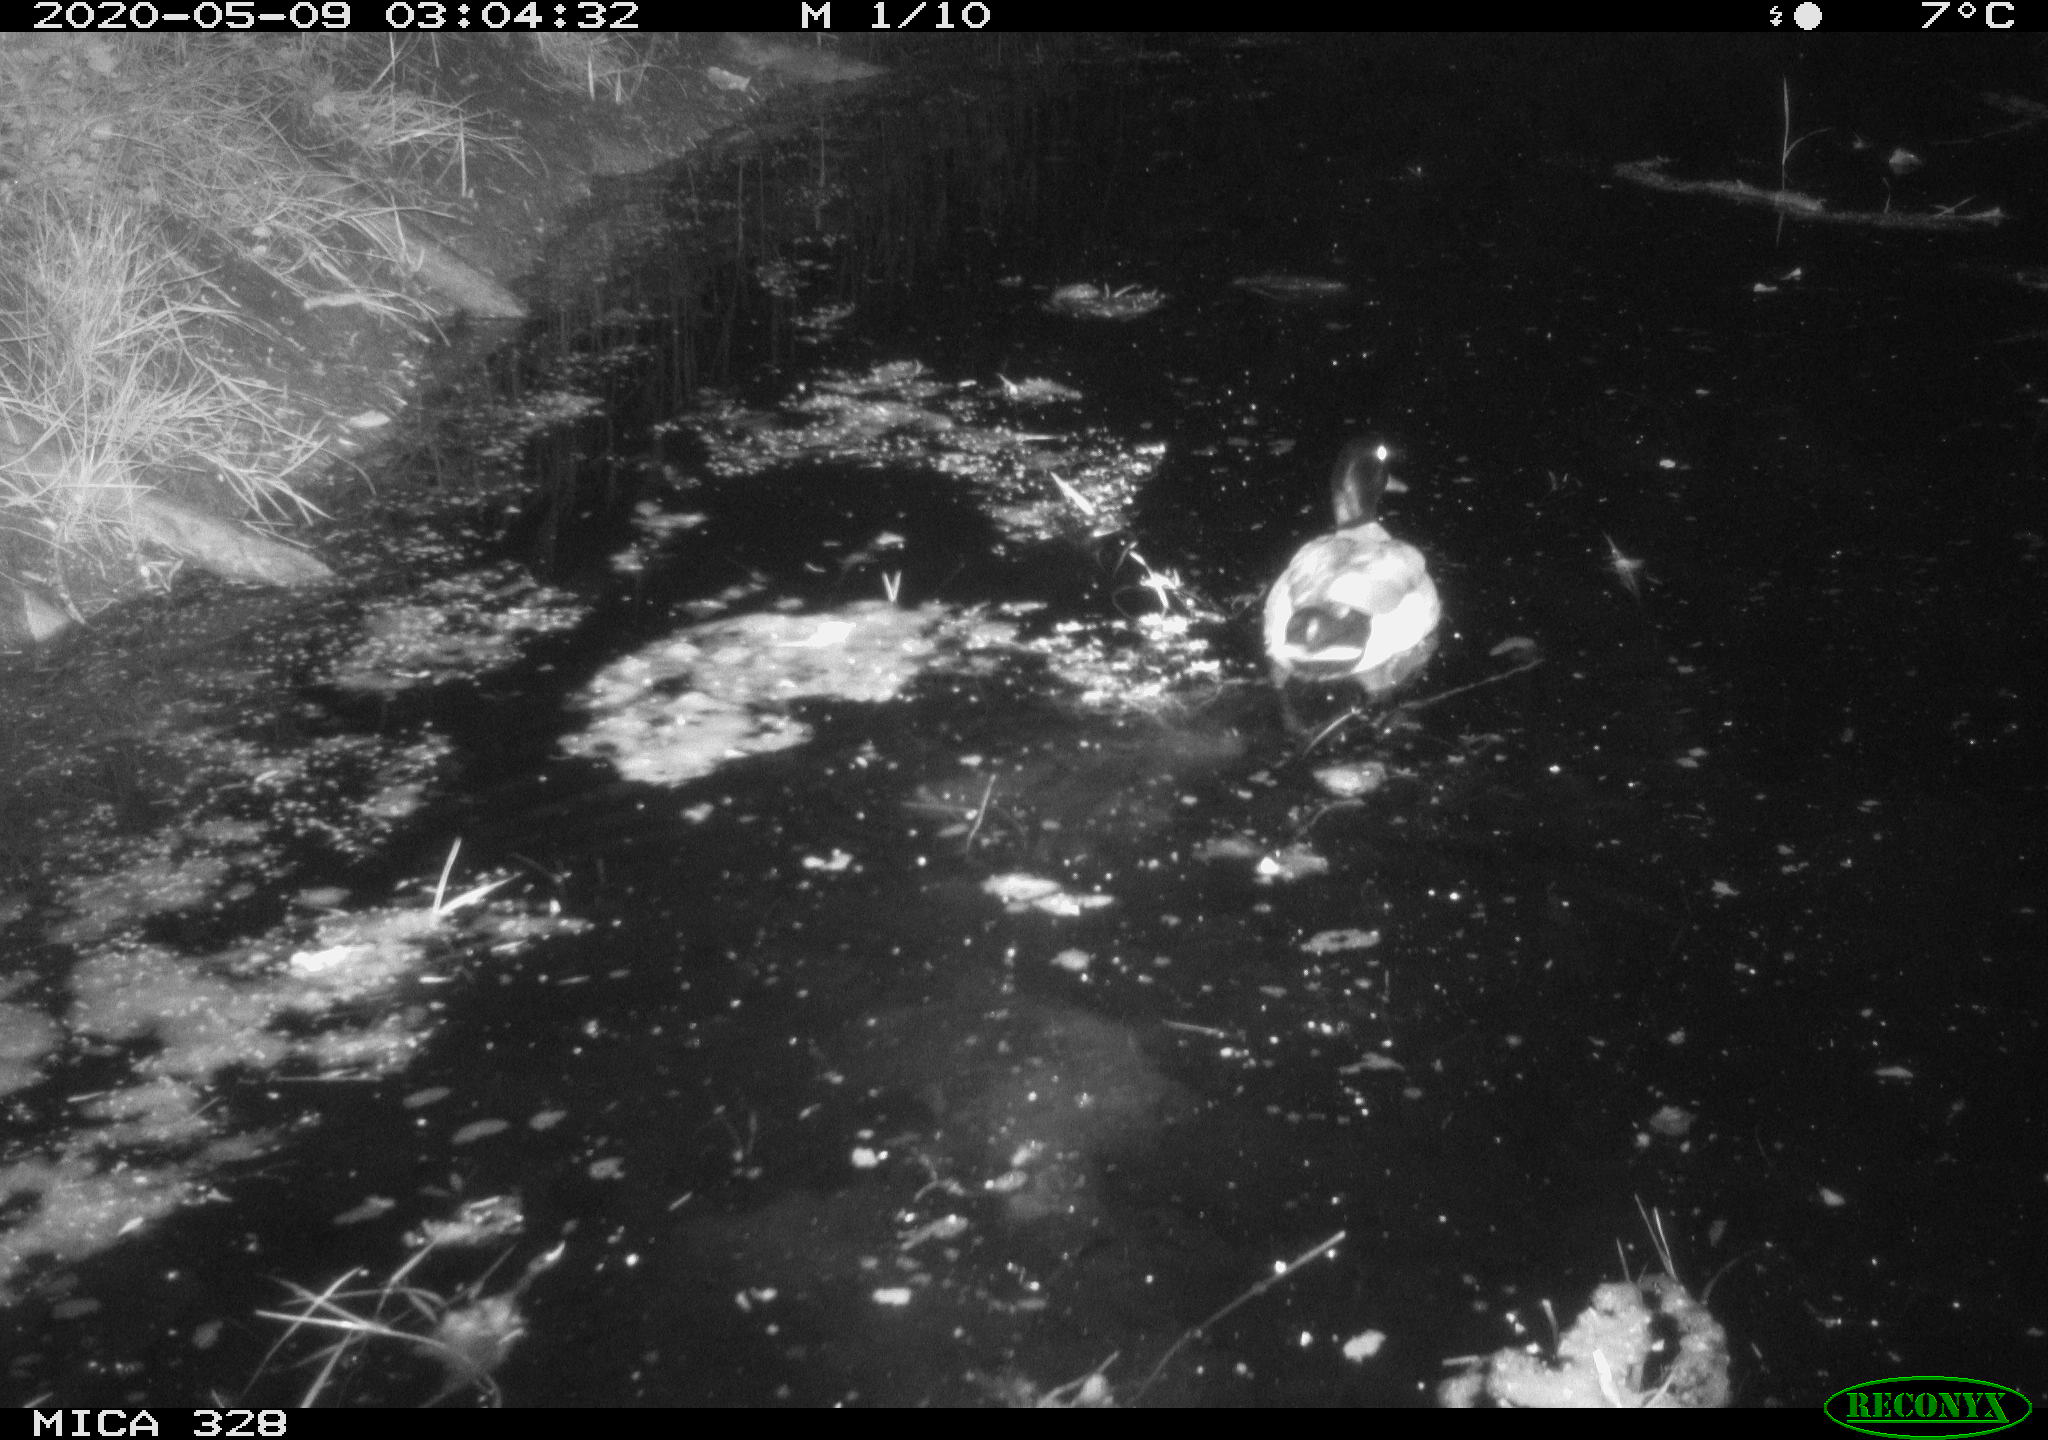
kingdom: Animalia
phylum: Chordata
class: Aves
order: Anseriformes
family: Anatidae
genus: Anas
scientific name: Anas platyrhynchos
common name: Mallard
